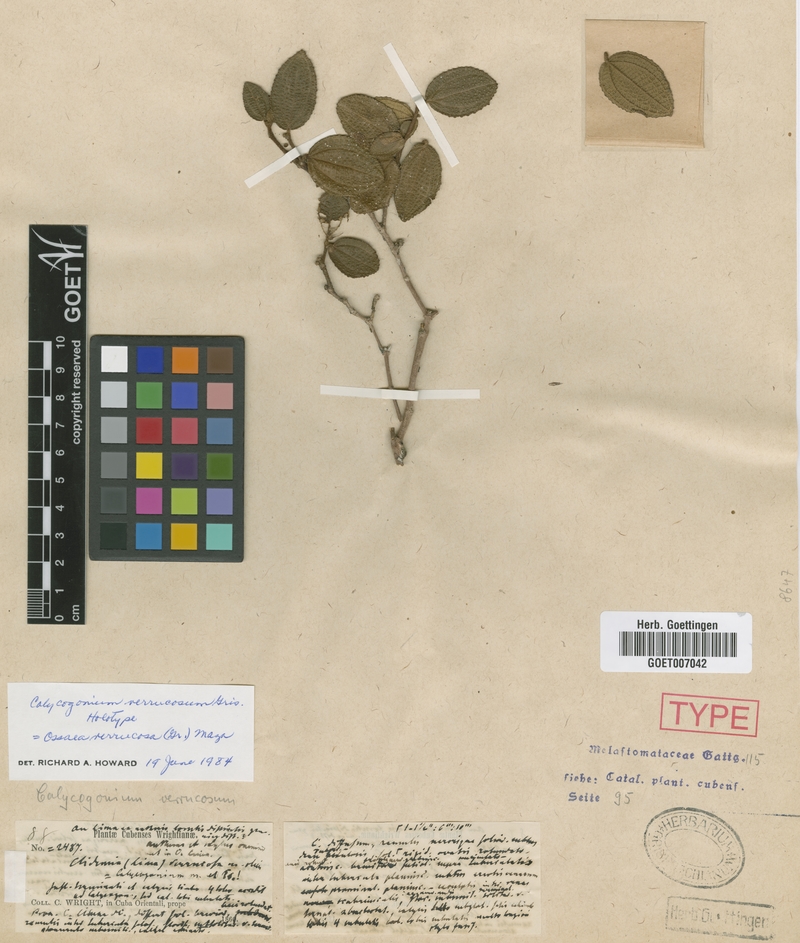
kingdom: Plantae
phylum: Tracheophyta
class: Magnoliopsida
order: Myrtales
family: Melastomataceae
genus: Miconia
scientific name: Miconia verrucosa
